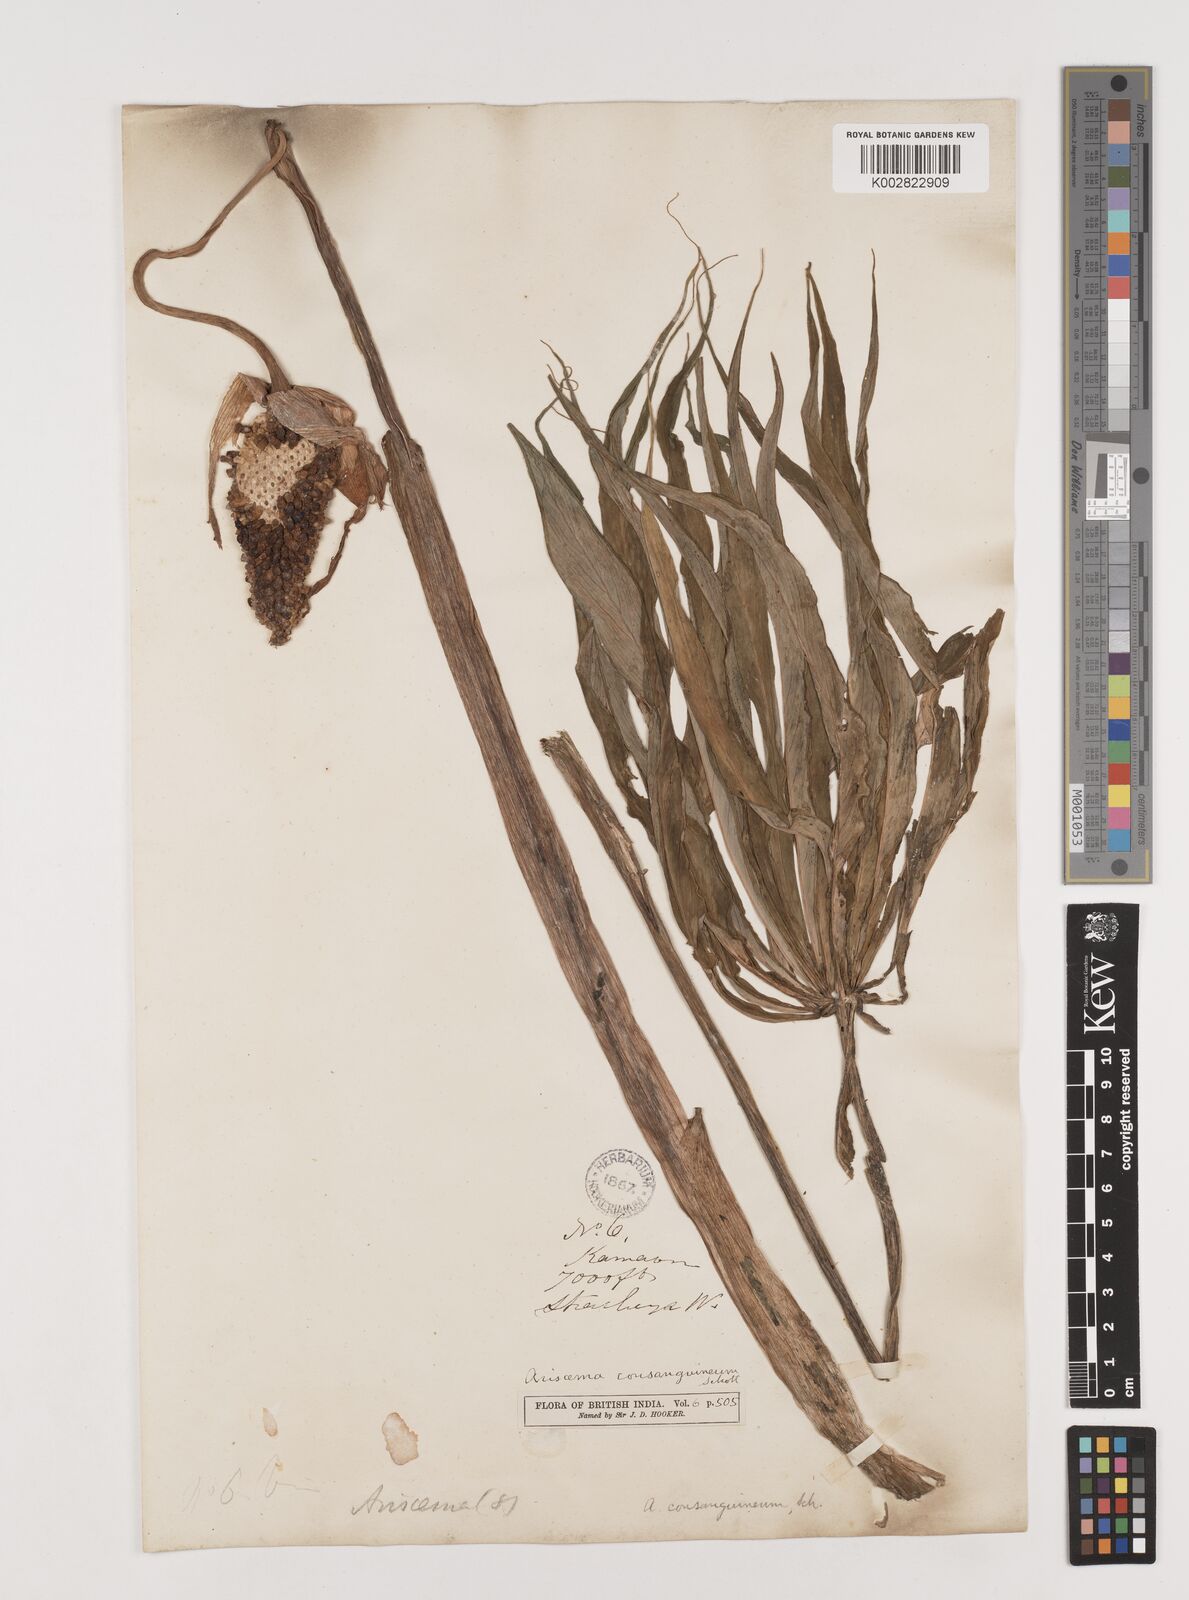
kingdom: Plantae
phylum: Tracheophyta
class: Liliopsida
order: Alismatales
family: Araceae
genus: Arisaema
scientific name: Arisaema erubescens
